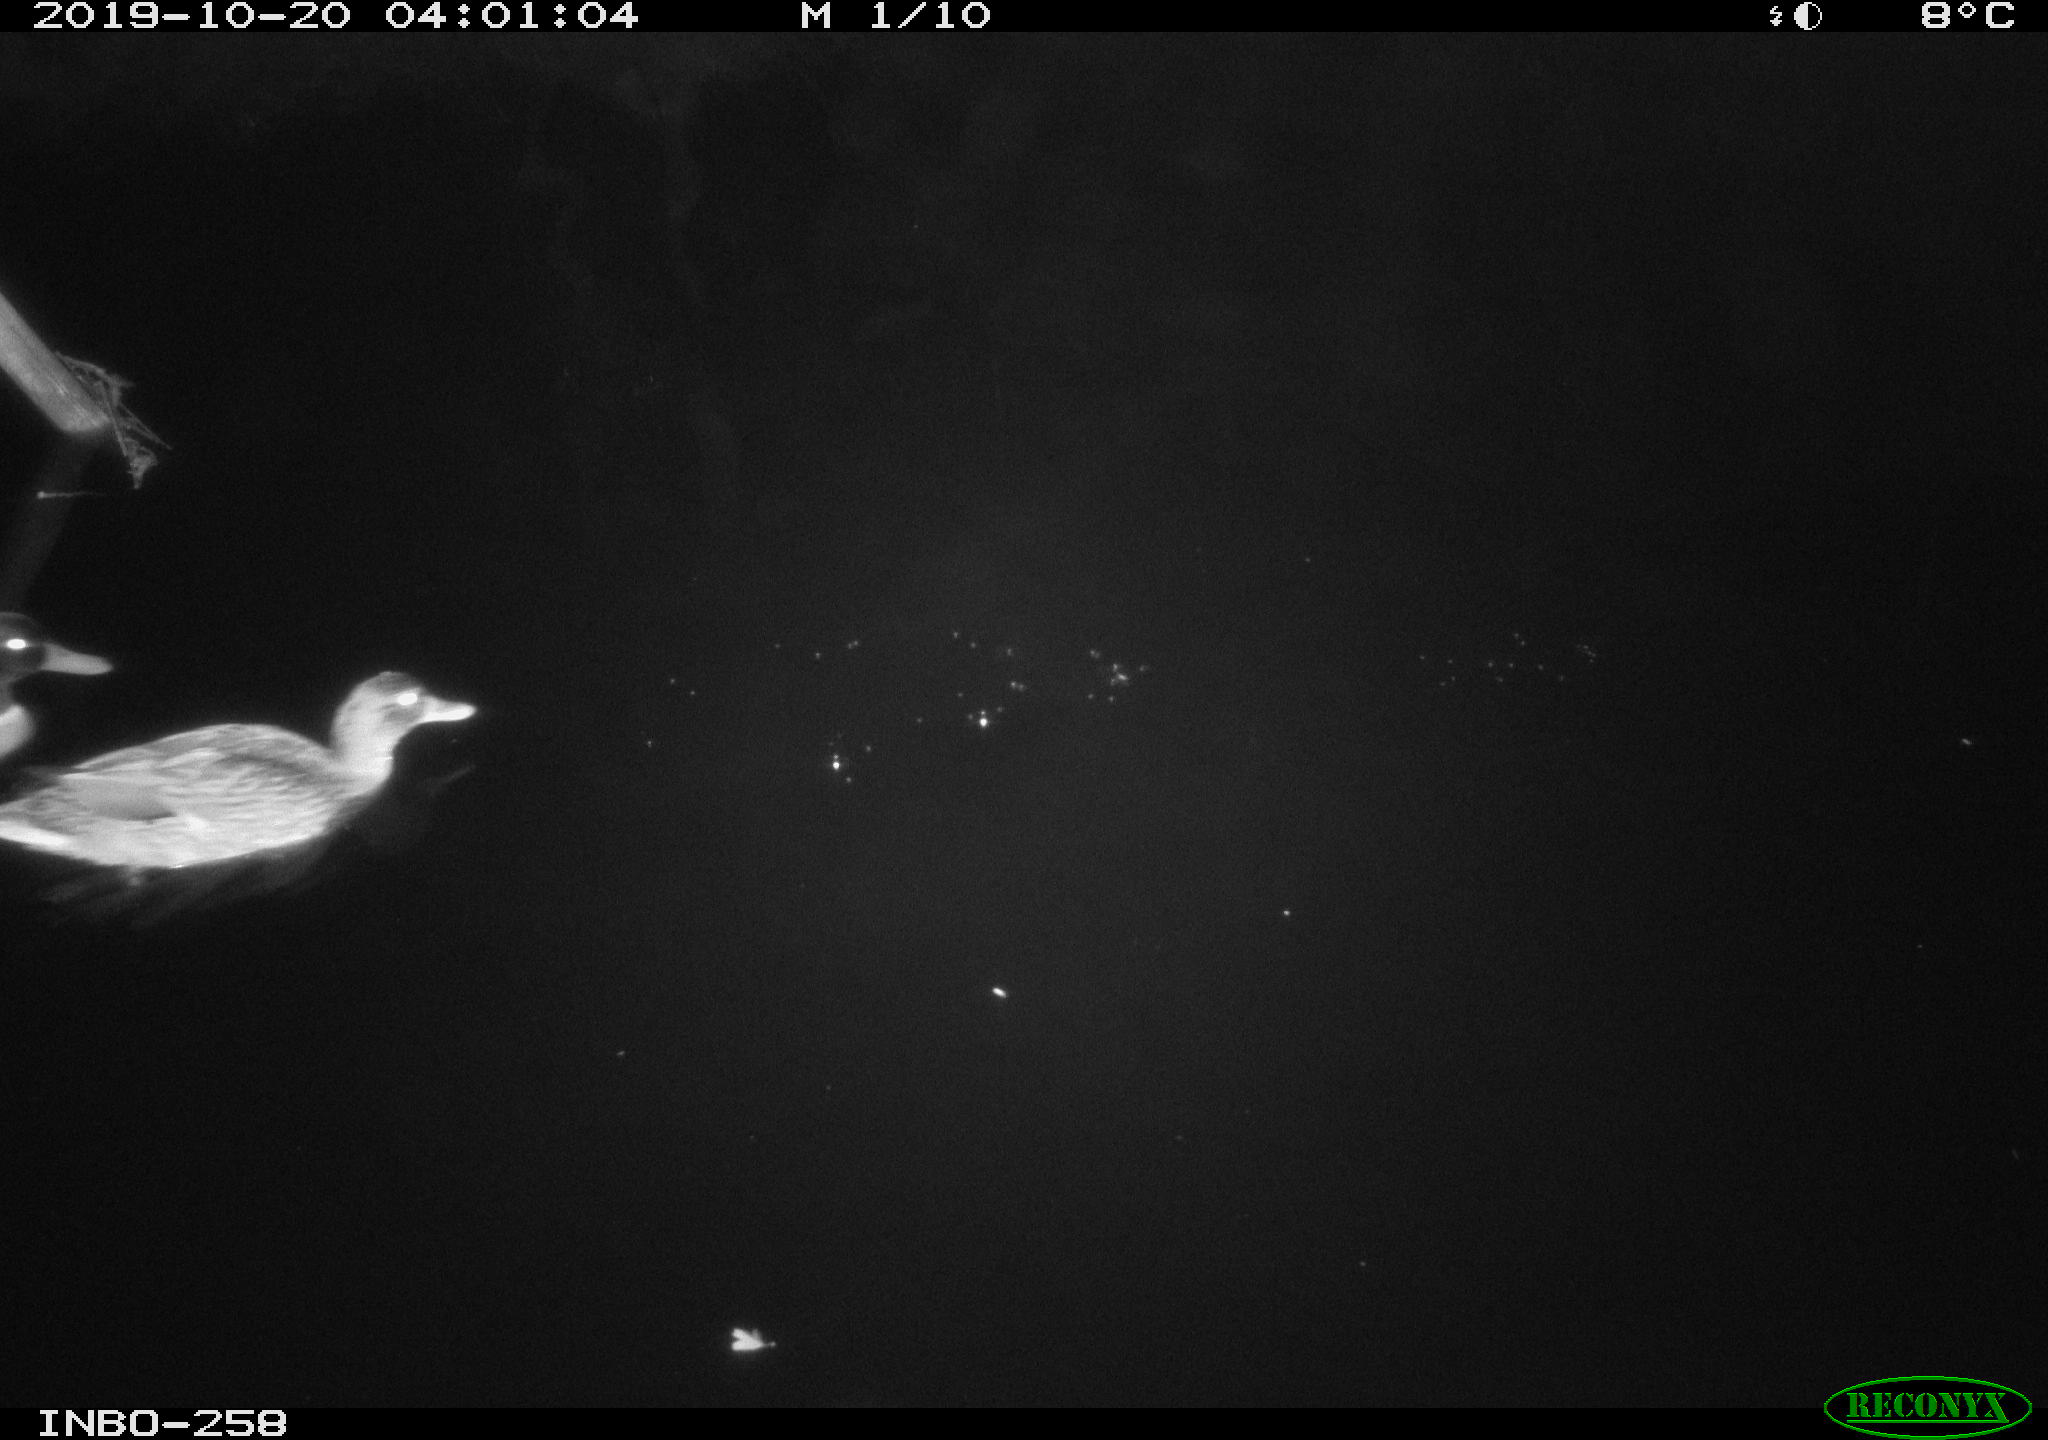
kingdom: Animalia
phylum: Chordata
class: Aves
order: Anseriformes
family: Anatidae
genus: Anas
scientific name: Anas platyrhynchos
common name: Mallard
